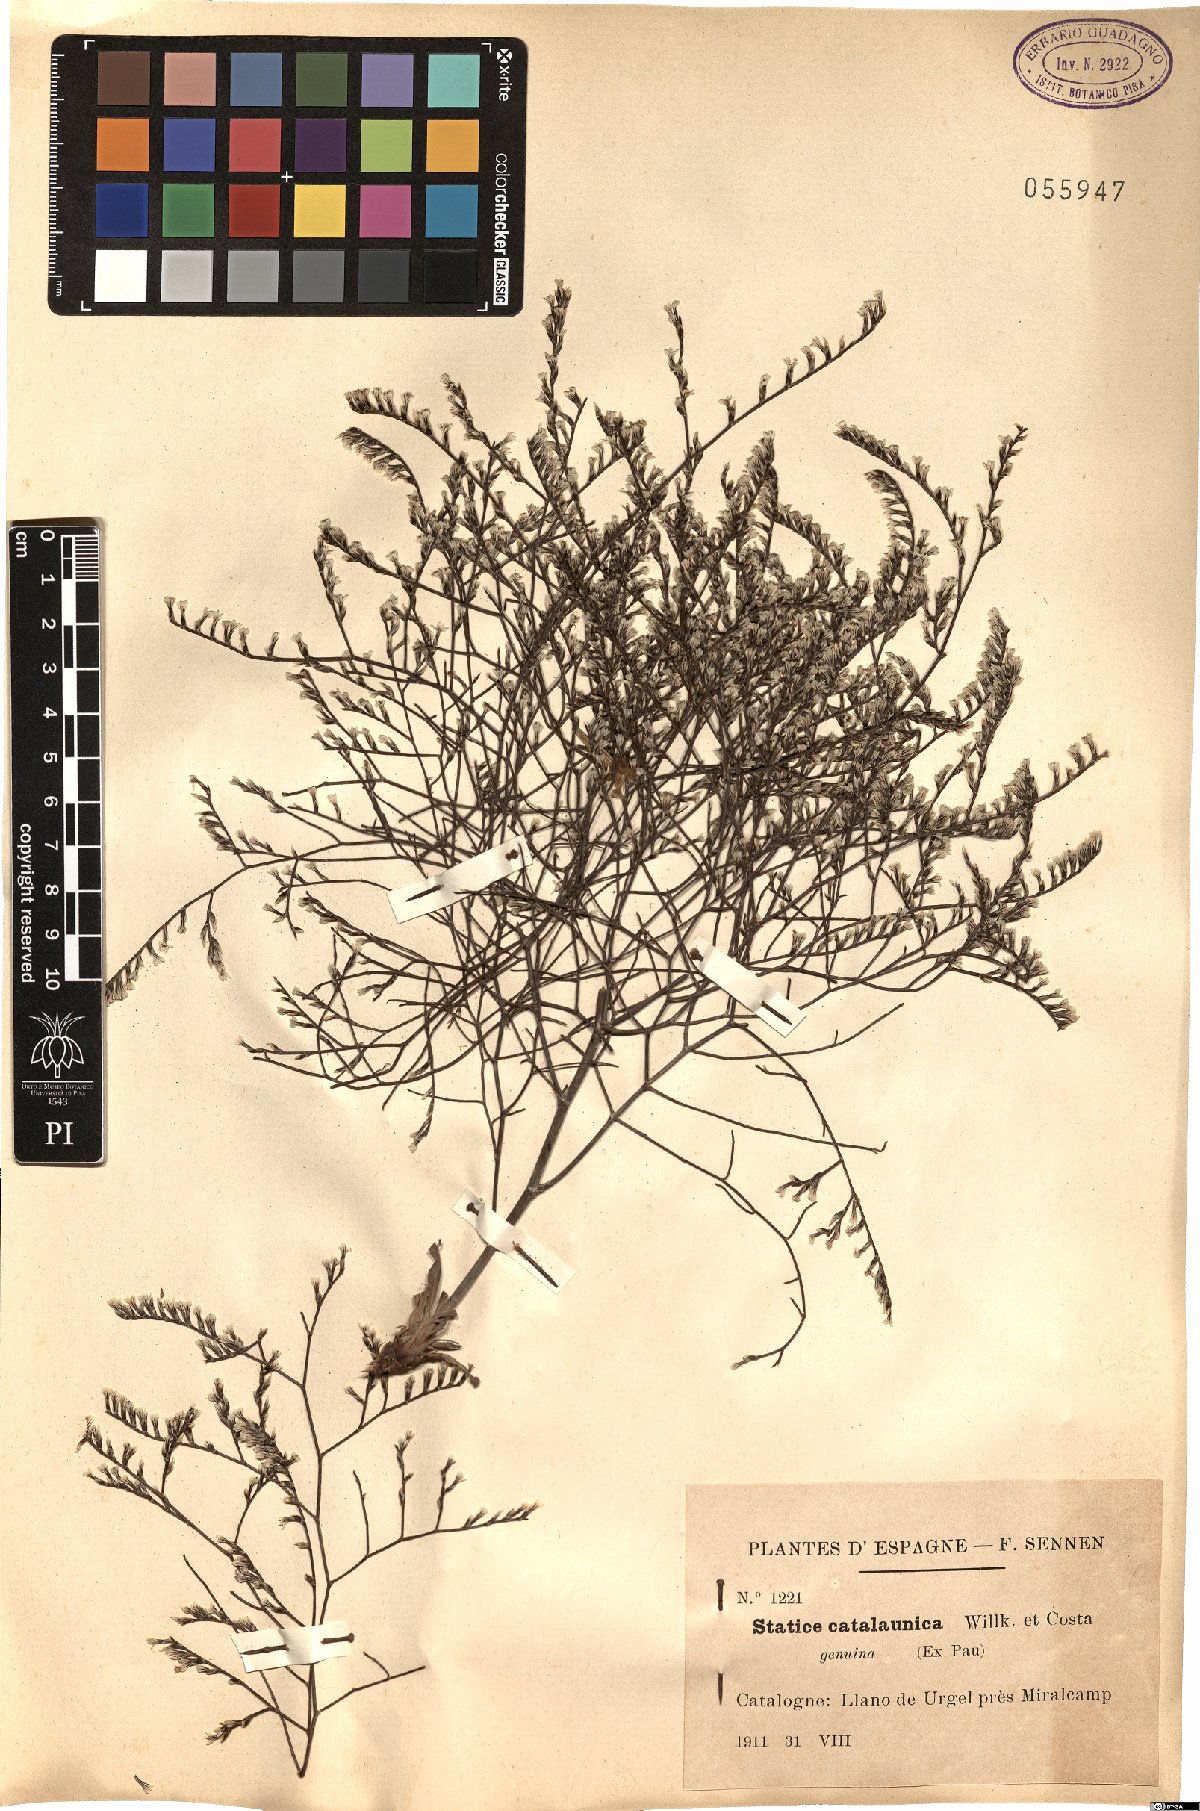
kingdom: Plantae
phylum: Tracheophyta
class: Magnoliopsida
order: Caryophyllales
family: Plumbaginaceae
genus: Limonium
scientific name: Limonium catalaunicum
